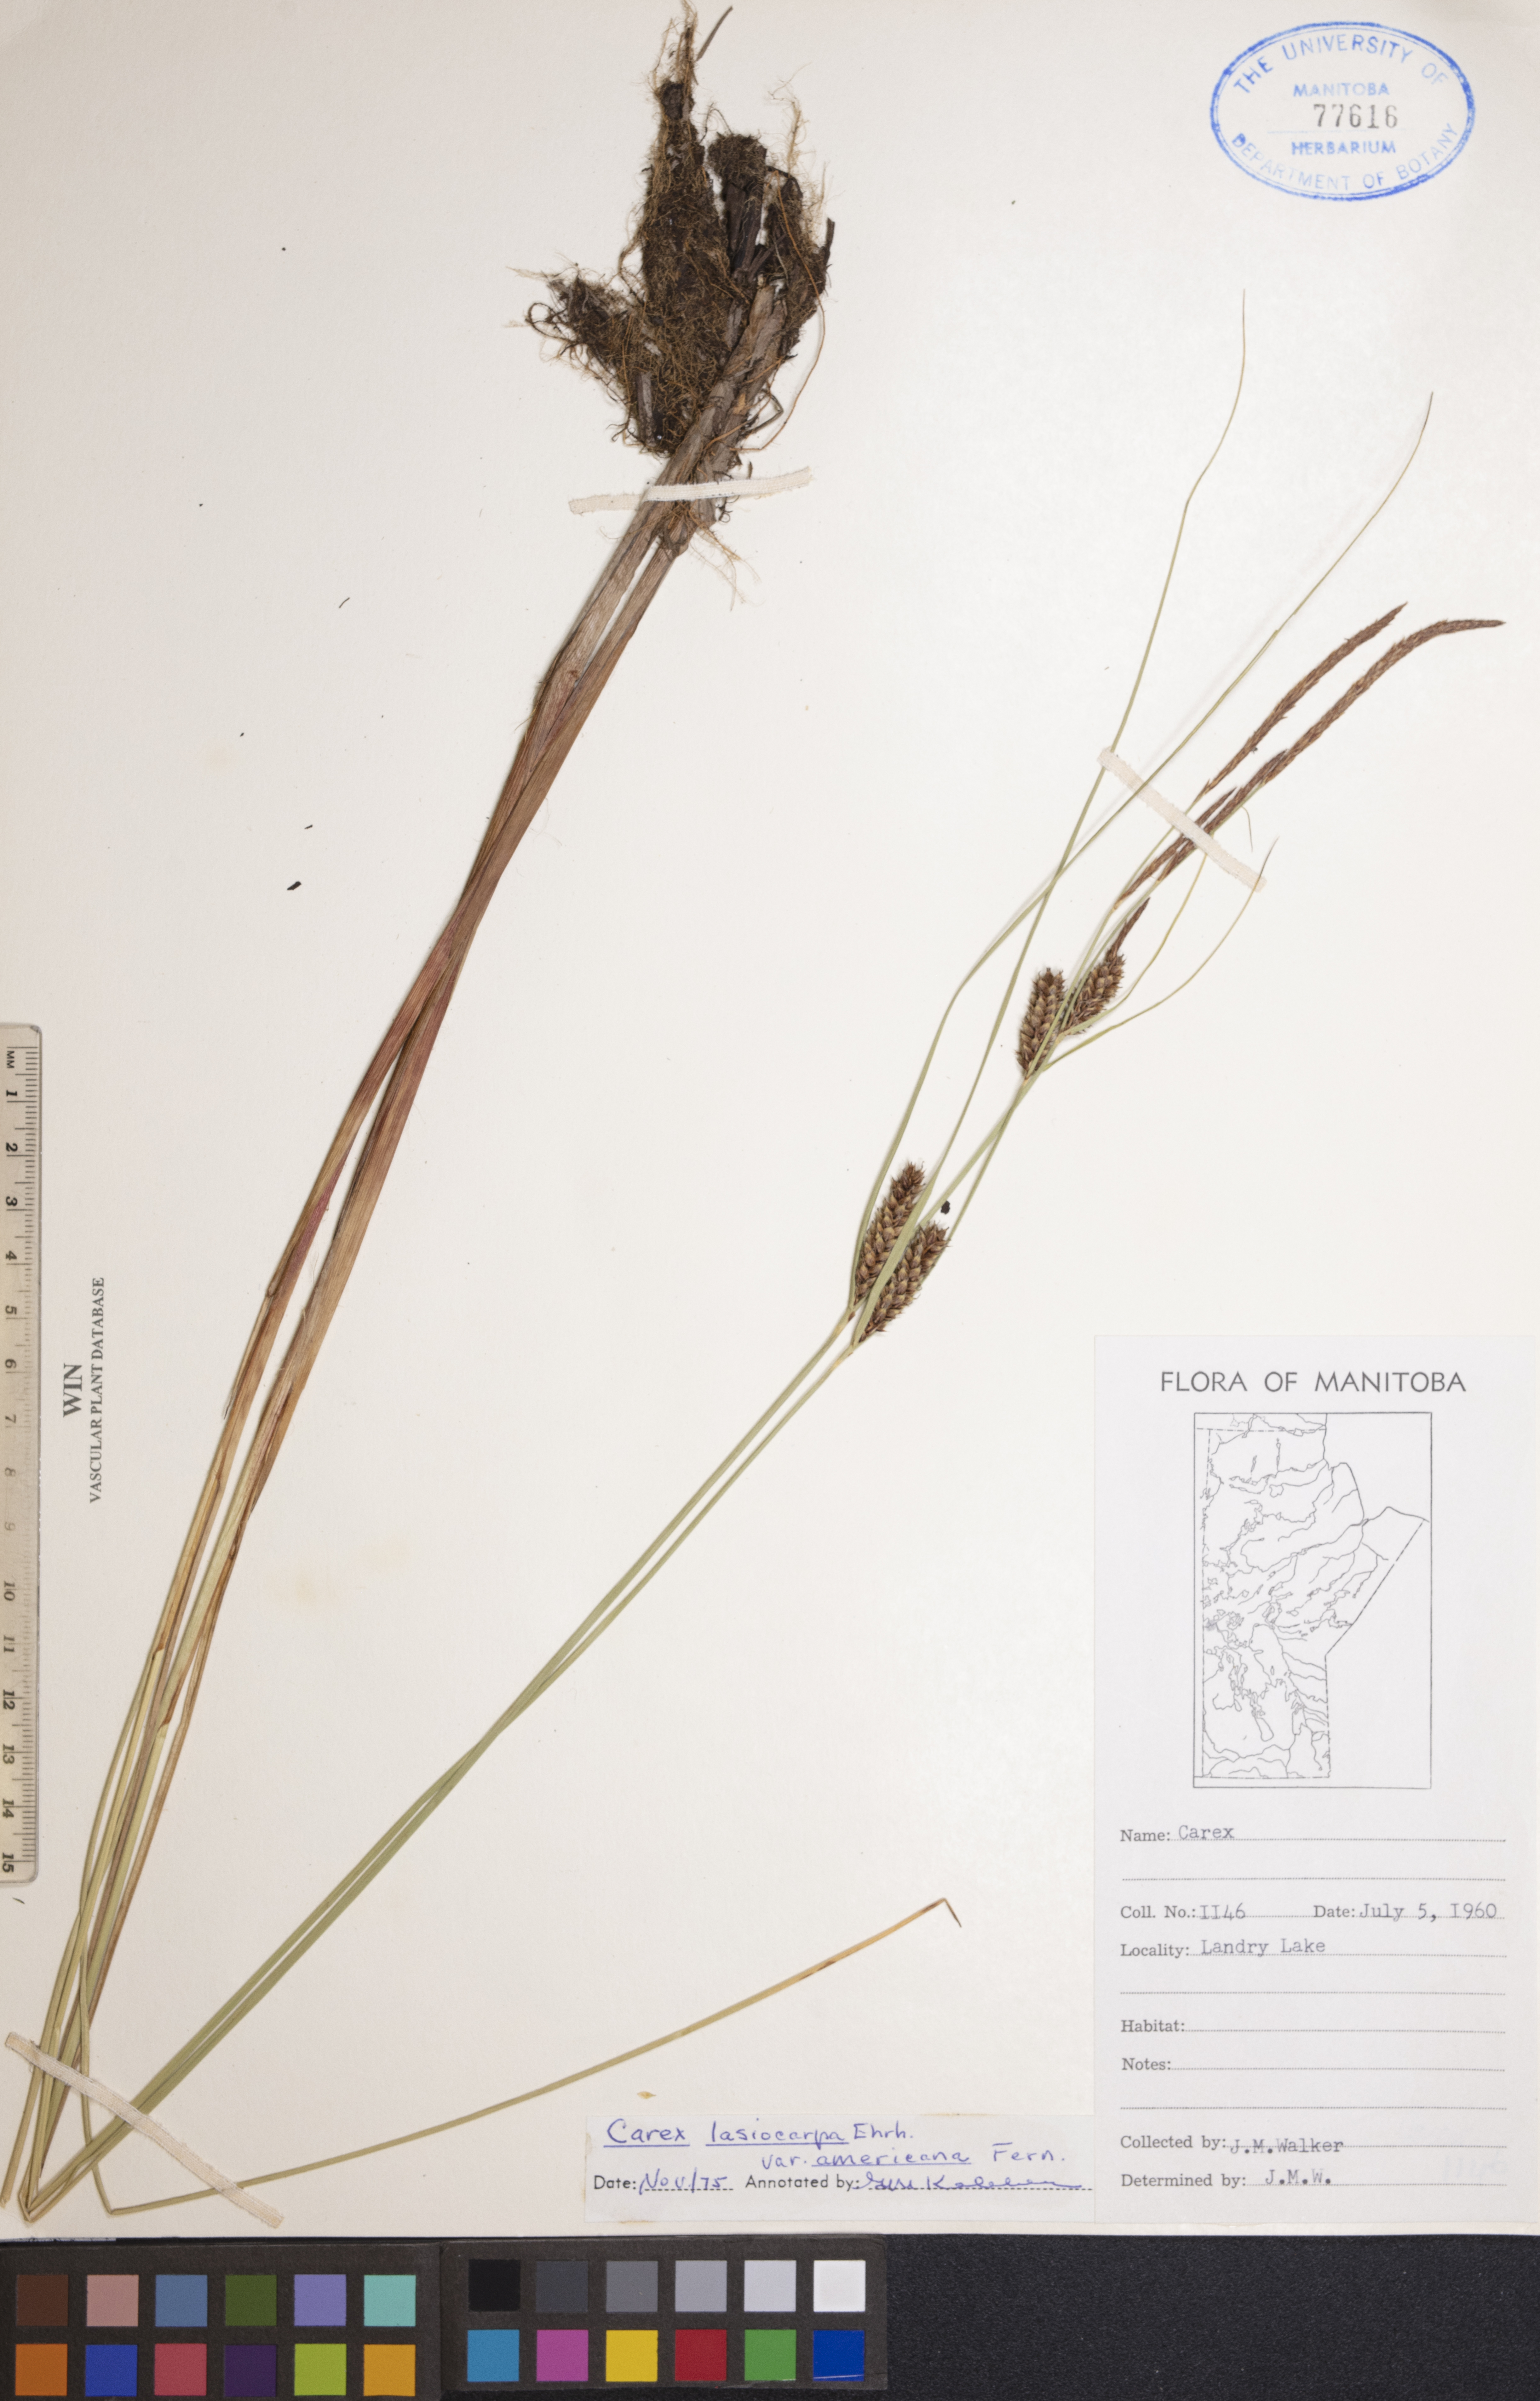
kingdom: Plantae
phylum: Tracheophyta
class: Liliopsida
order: Poales
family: Cyperaceae
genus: Carex
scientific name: Carex lasiocarpa
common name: Slender sedge
